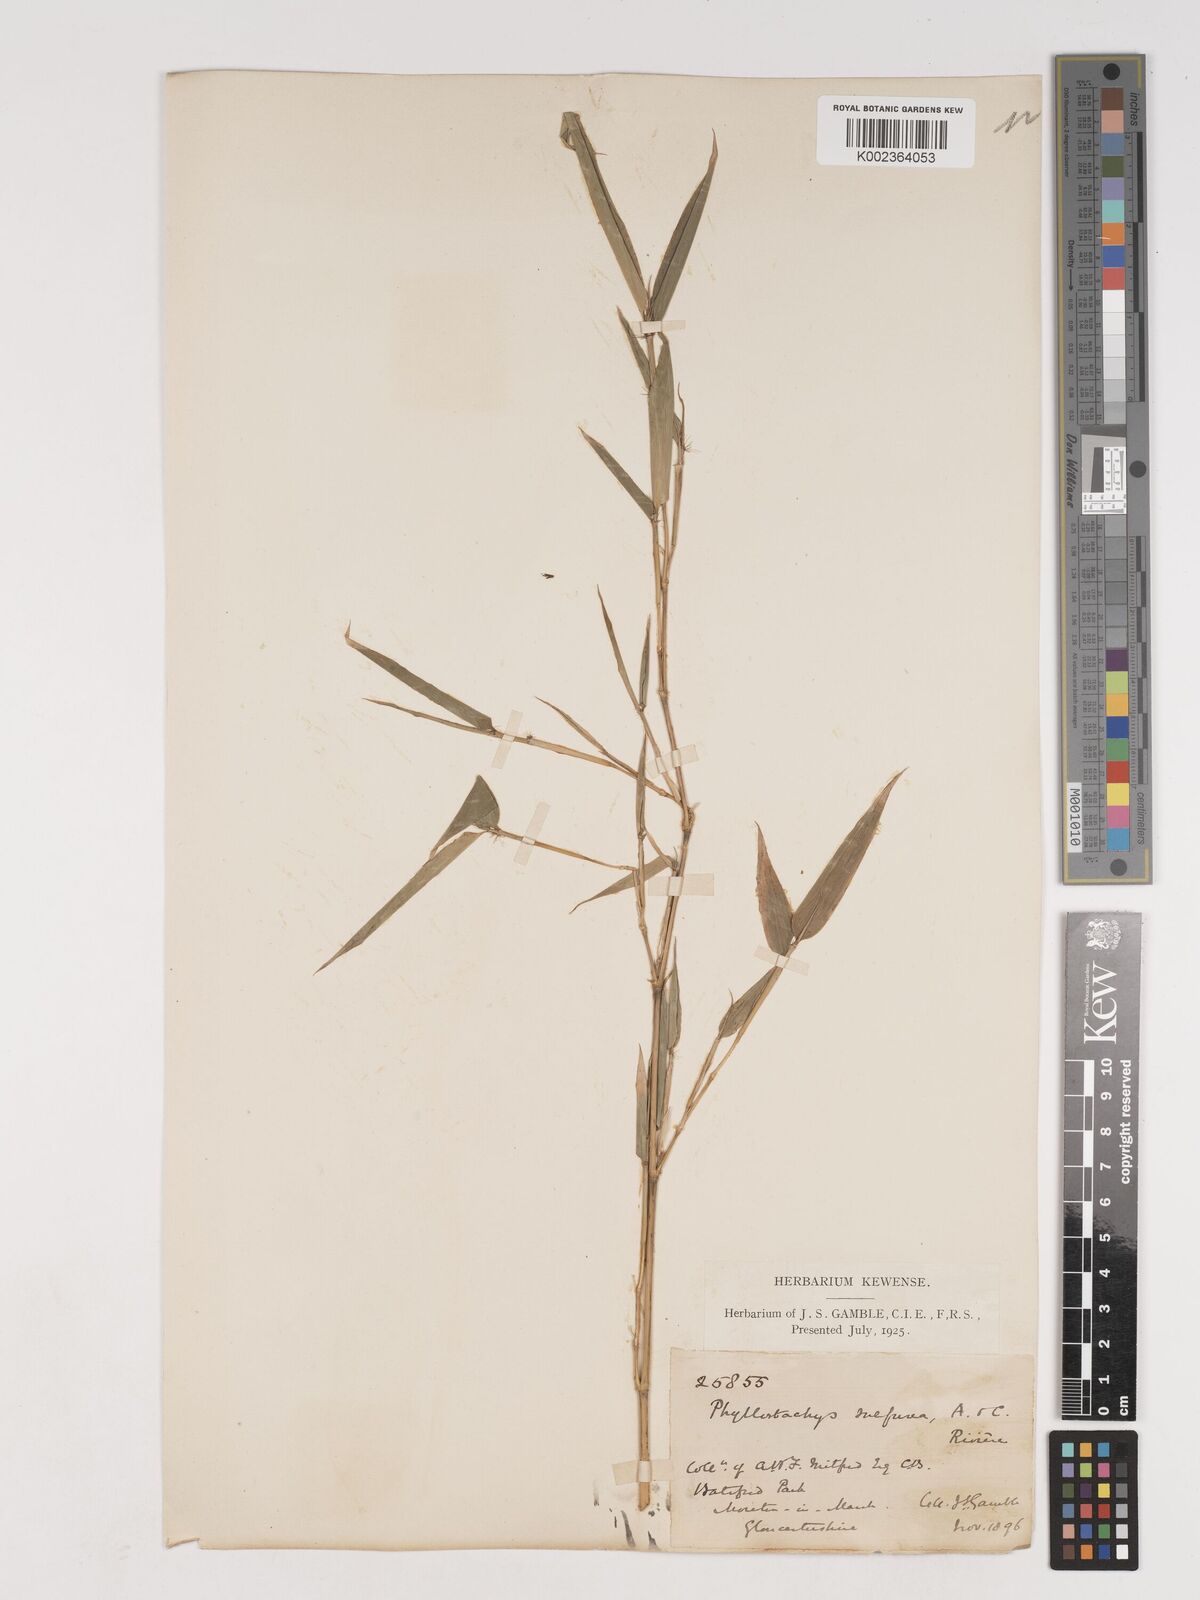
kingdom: Plantae
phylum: Tracheophyta
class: Liliopsida
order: Poales
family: Poaceae
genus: Phyllostachys
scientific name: Phyllostachys sulphurea
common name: Sulphur bamboo
